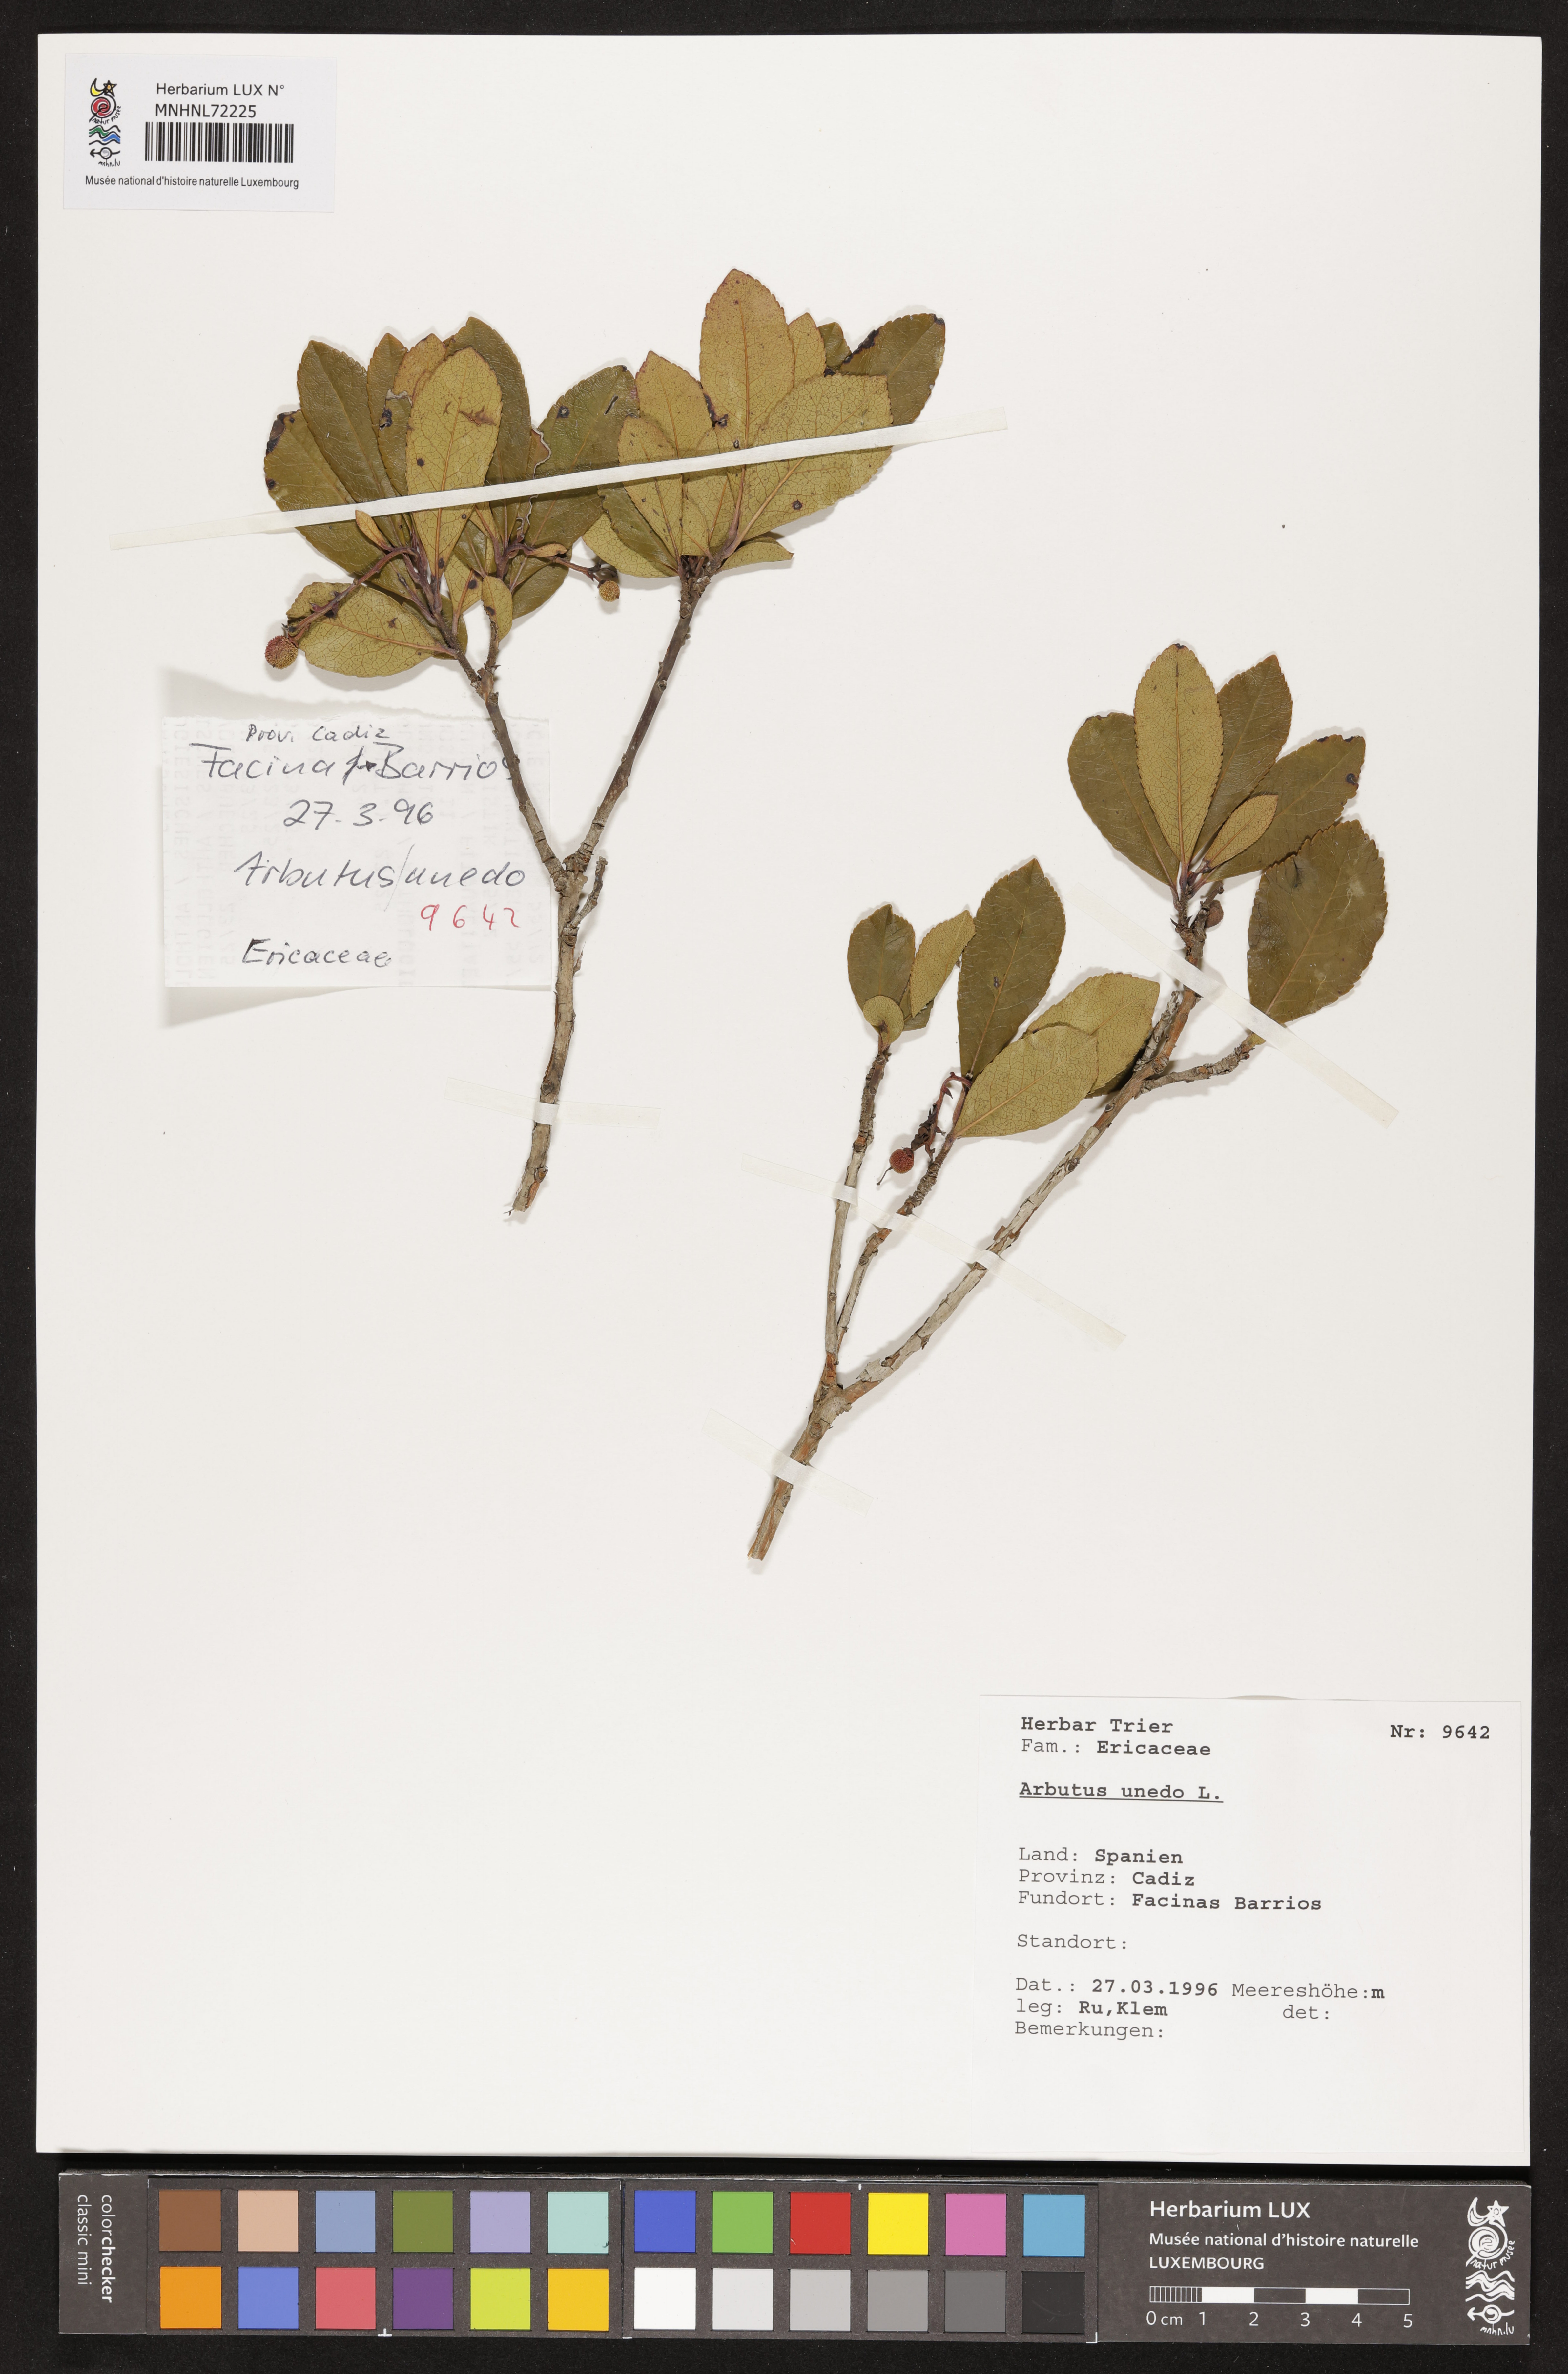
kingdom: Plantae
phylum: Tracheophyta
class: Magnoliopsida
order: Ericales
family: Ericaceae
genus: Arbutus
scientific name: Arbutus unedo
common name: Strawberry-tree
